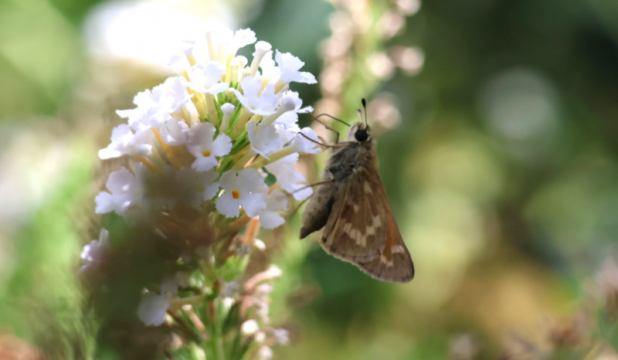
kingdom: Animalia
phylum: Arthropoda
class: Insecta
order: Lepidoptera
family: Hesperiidae
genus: Atalopedes
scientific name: Atalopedes campestris
